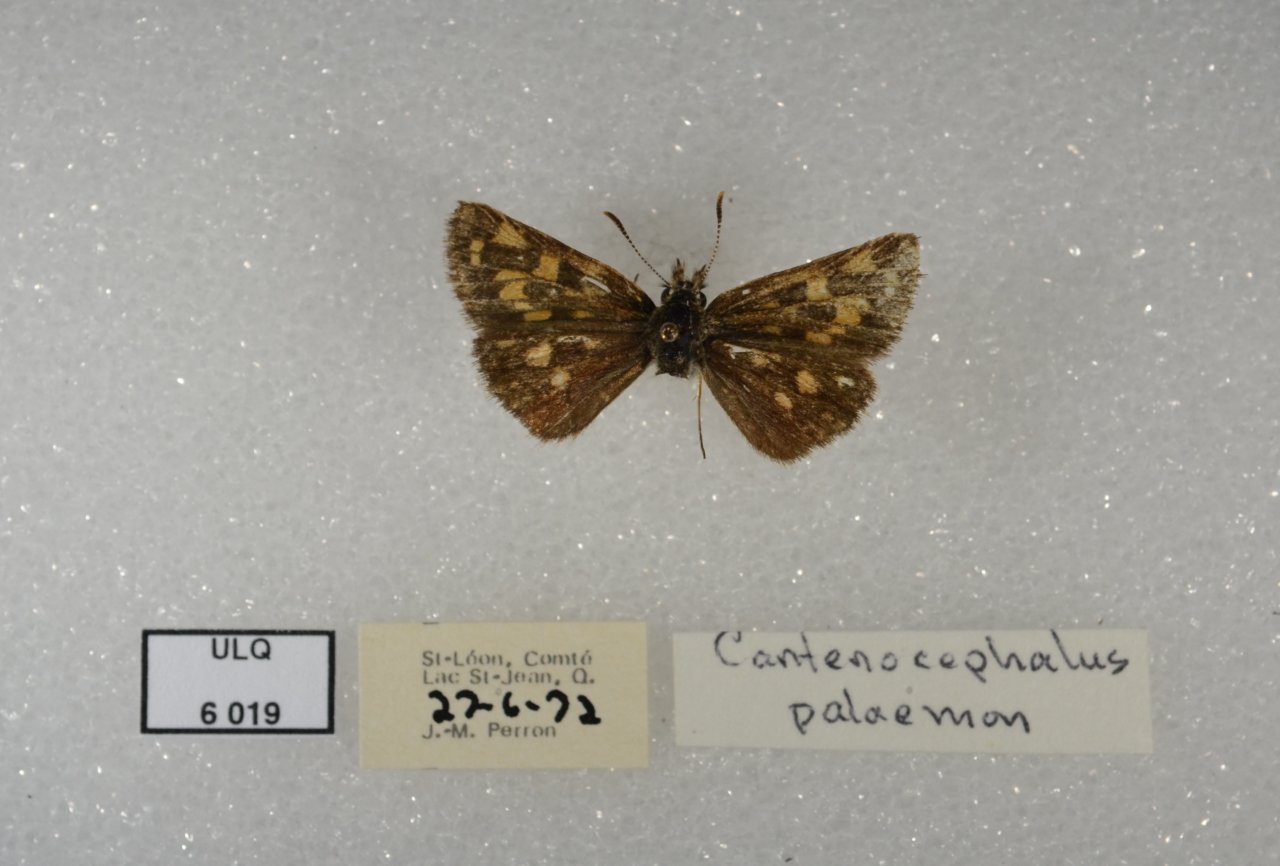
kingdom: Animalia
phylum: Arthropoda
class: Insecta
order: Lepidoptera
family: Hesperiidae
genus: Carterocephalus
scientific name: Carterocephalus palaemon
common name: Chequered Skipper
